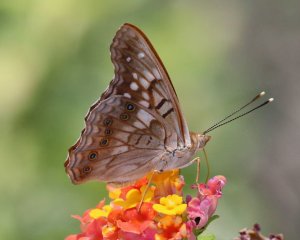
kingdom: Animalia
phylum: Arthropoda
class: Insecta
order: Lepidoptera
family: Nymphalidae
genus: Asterocampa
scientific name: Asterocampa clyton
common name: Tawny Emperor
